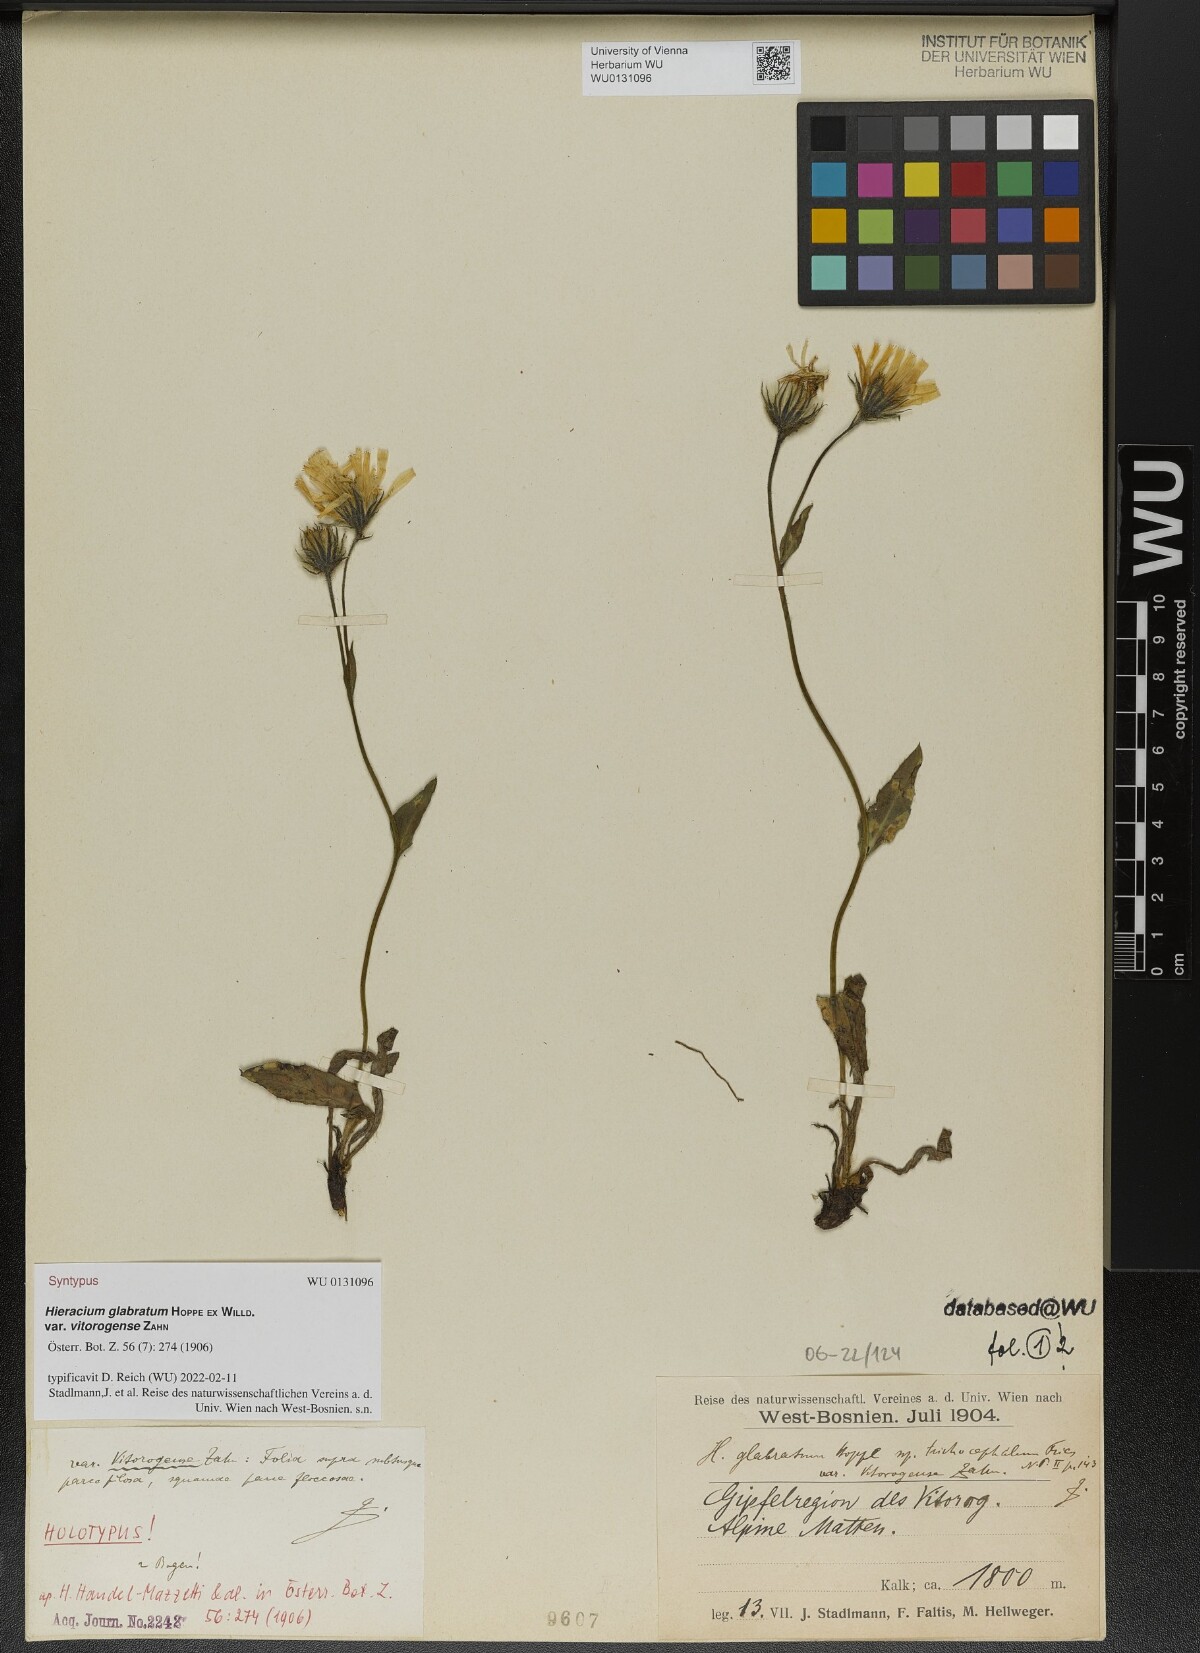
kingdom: Plantae
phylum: Tracheophyta
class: Magnoliopsida
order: Asterales
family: Asteraceae
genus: Hieracium
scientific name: Hieracium glabratum
